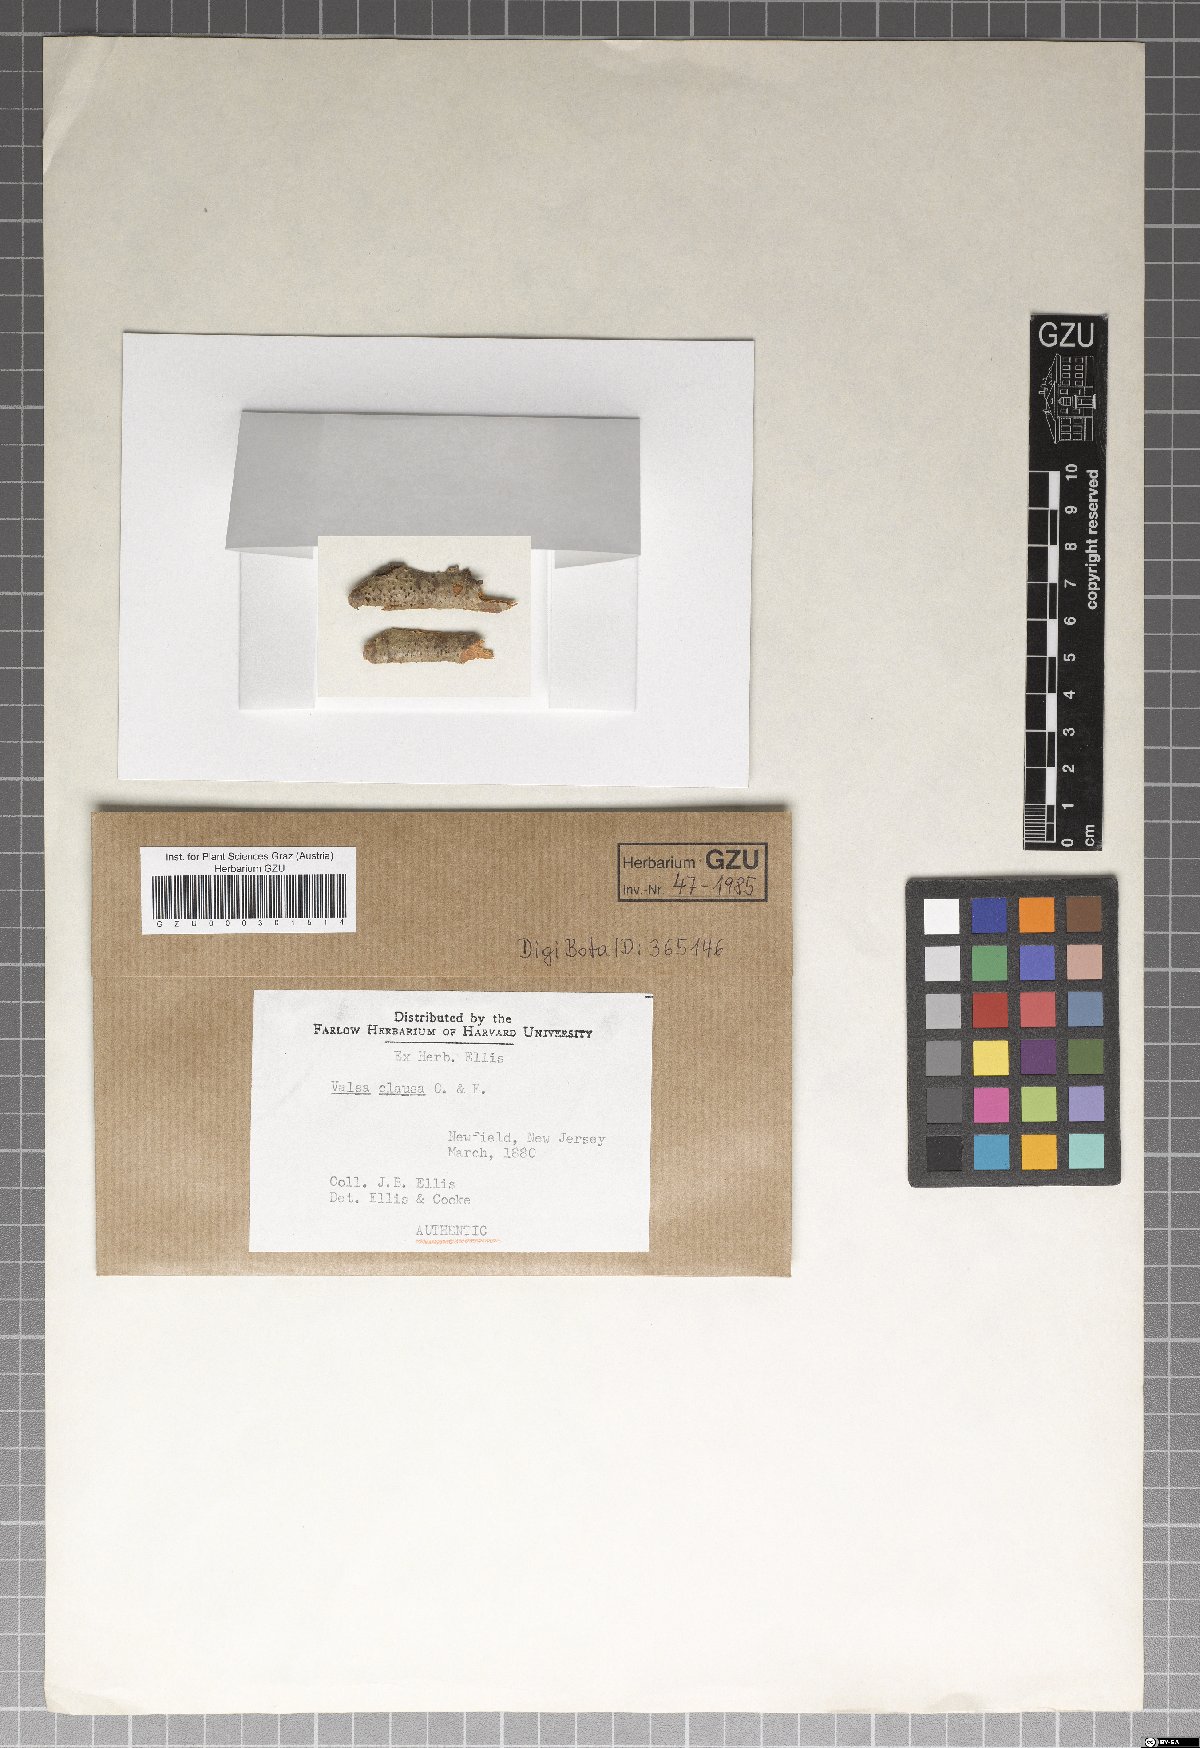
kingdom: Fungi
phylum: Ascomycota
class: Sordariomycetes
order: Diaporthales
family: Valsaceae
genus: Valsa
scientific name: Valsa
